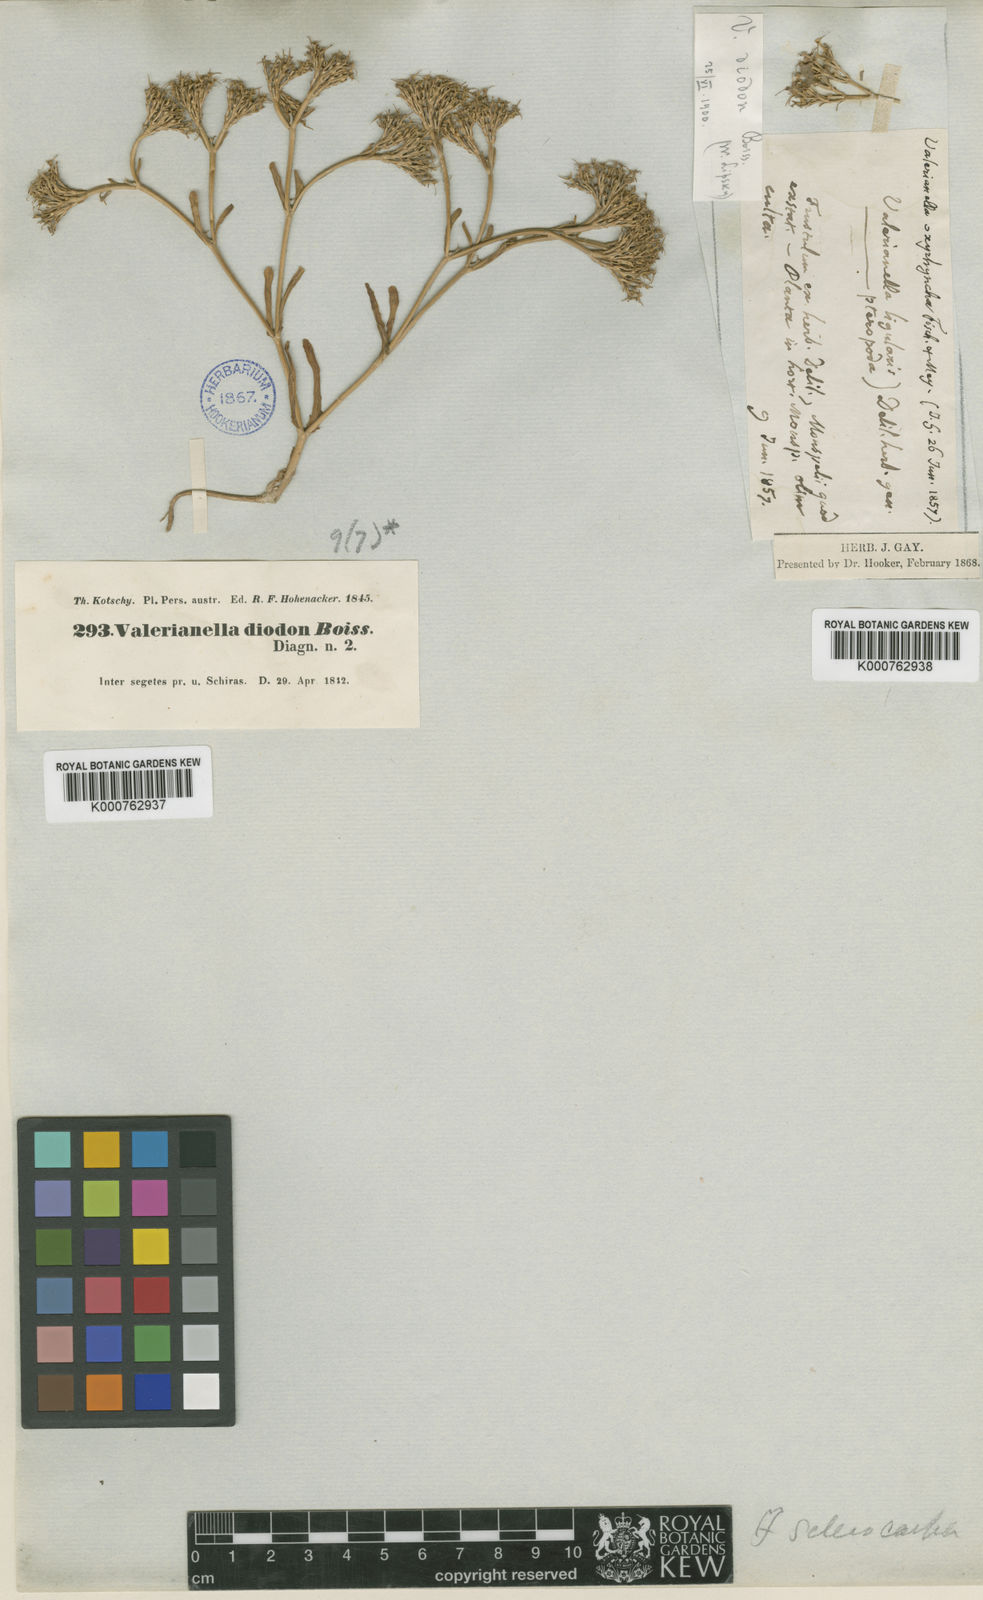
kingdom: Plantae
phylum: Tracheophyta
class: Magnoliopsida
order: Dipsacales
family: Caprifoliaceae
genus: Valerianella
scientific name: Valerianella oxyrhyncha
